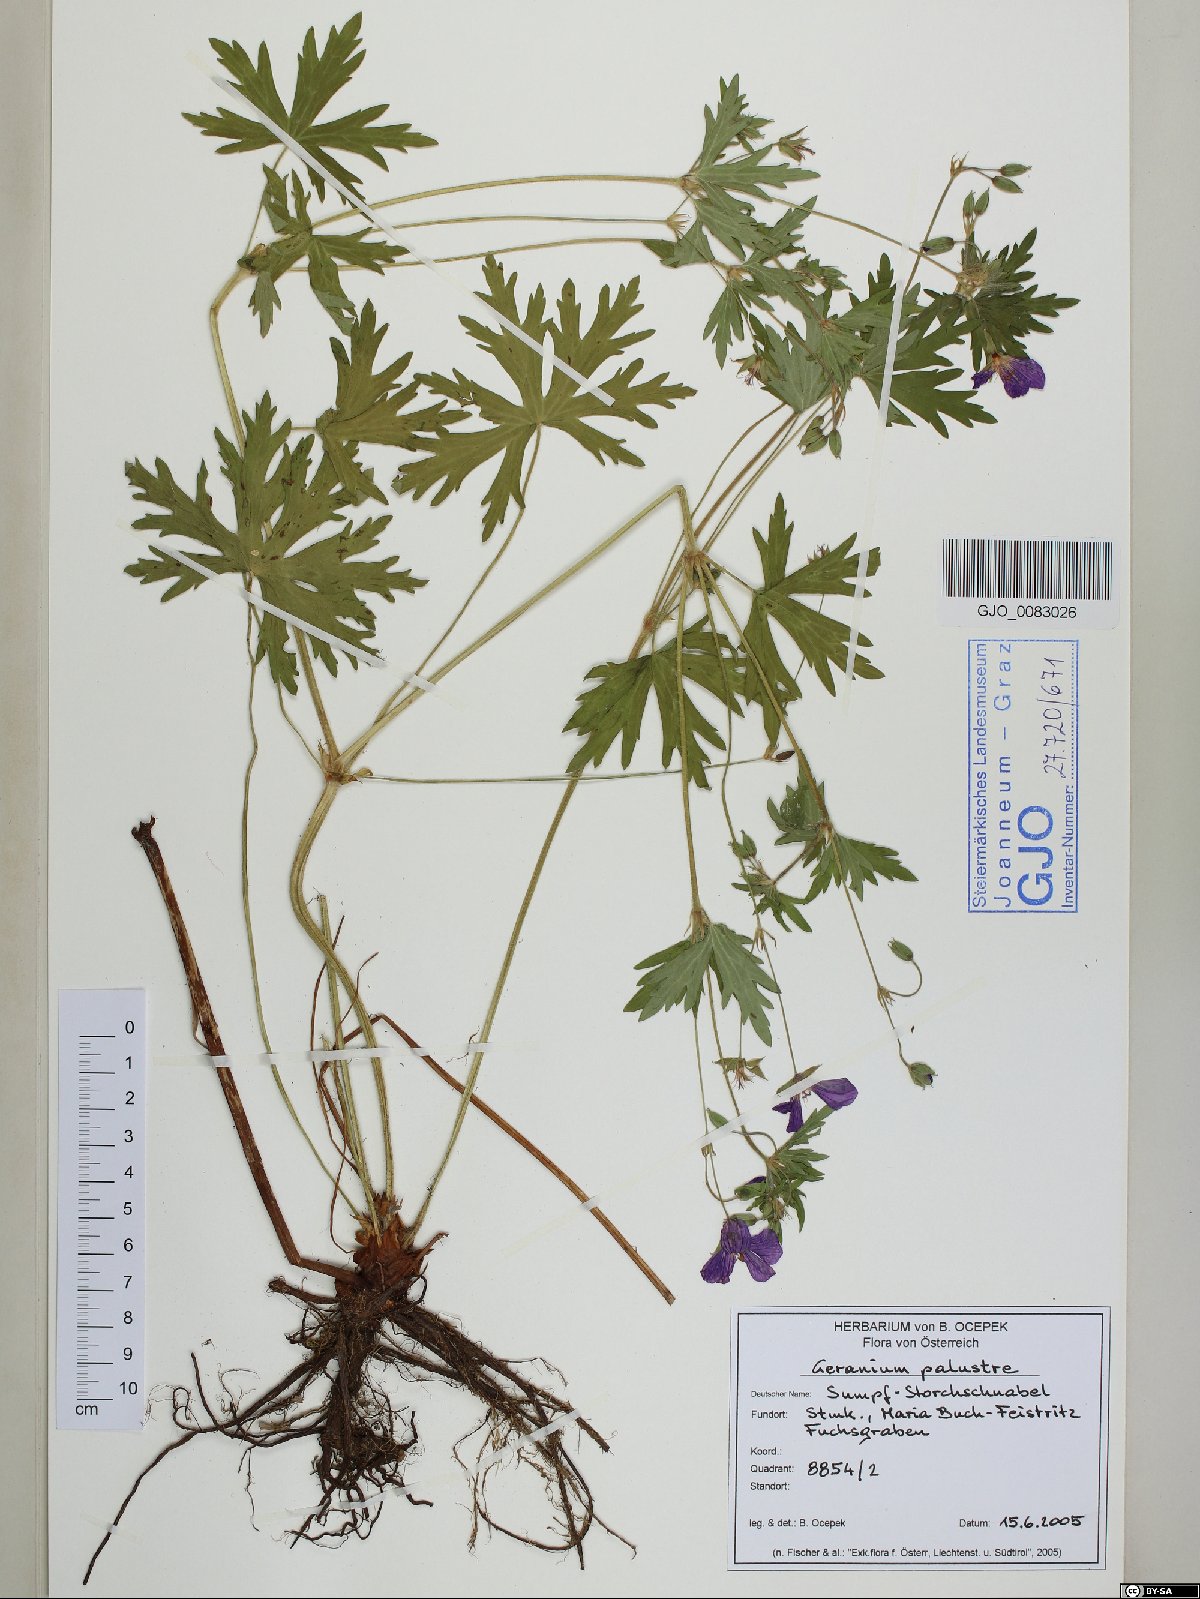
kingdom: Plantae
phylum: Tracheophyta
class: Magnoliopsida
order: Geraniales
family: Geraniaceae
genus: Geranium
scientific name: Geranium palustre
